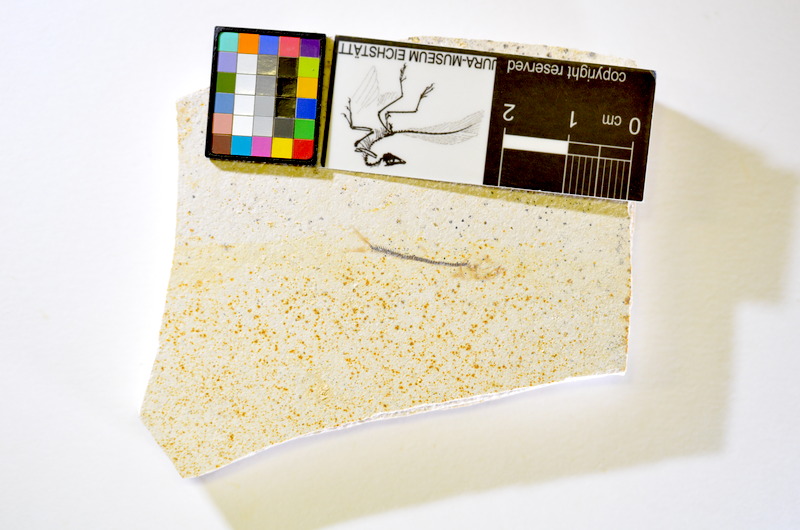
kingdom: Animalia
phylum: Chordata
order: Salmoniformes
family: Orthogonikleithridae
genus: Orthogonikleithrus
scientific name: Orthogonikleithrus hoelli
